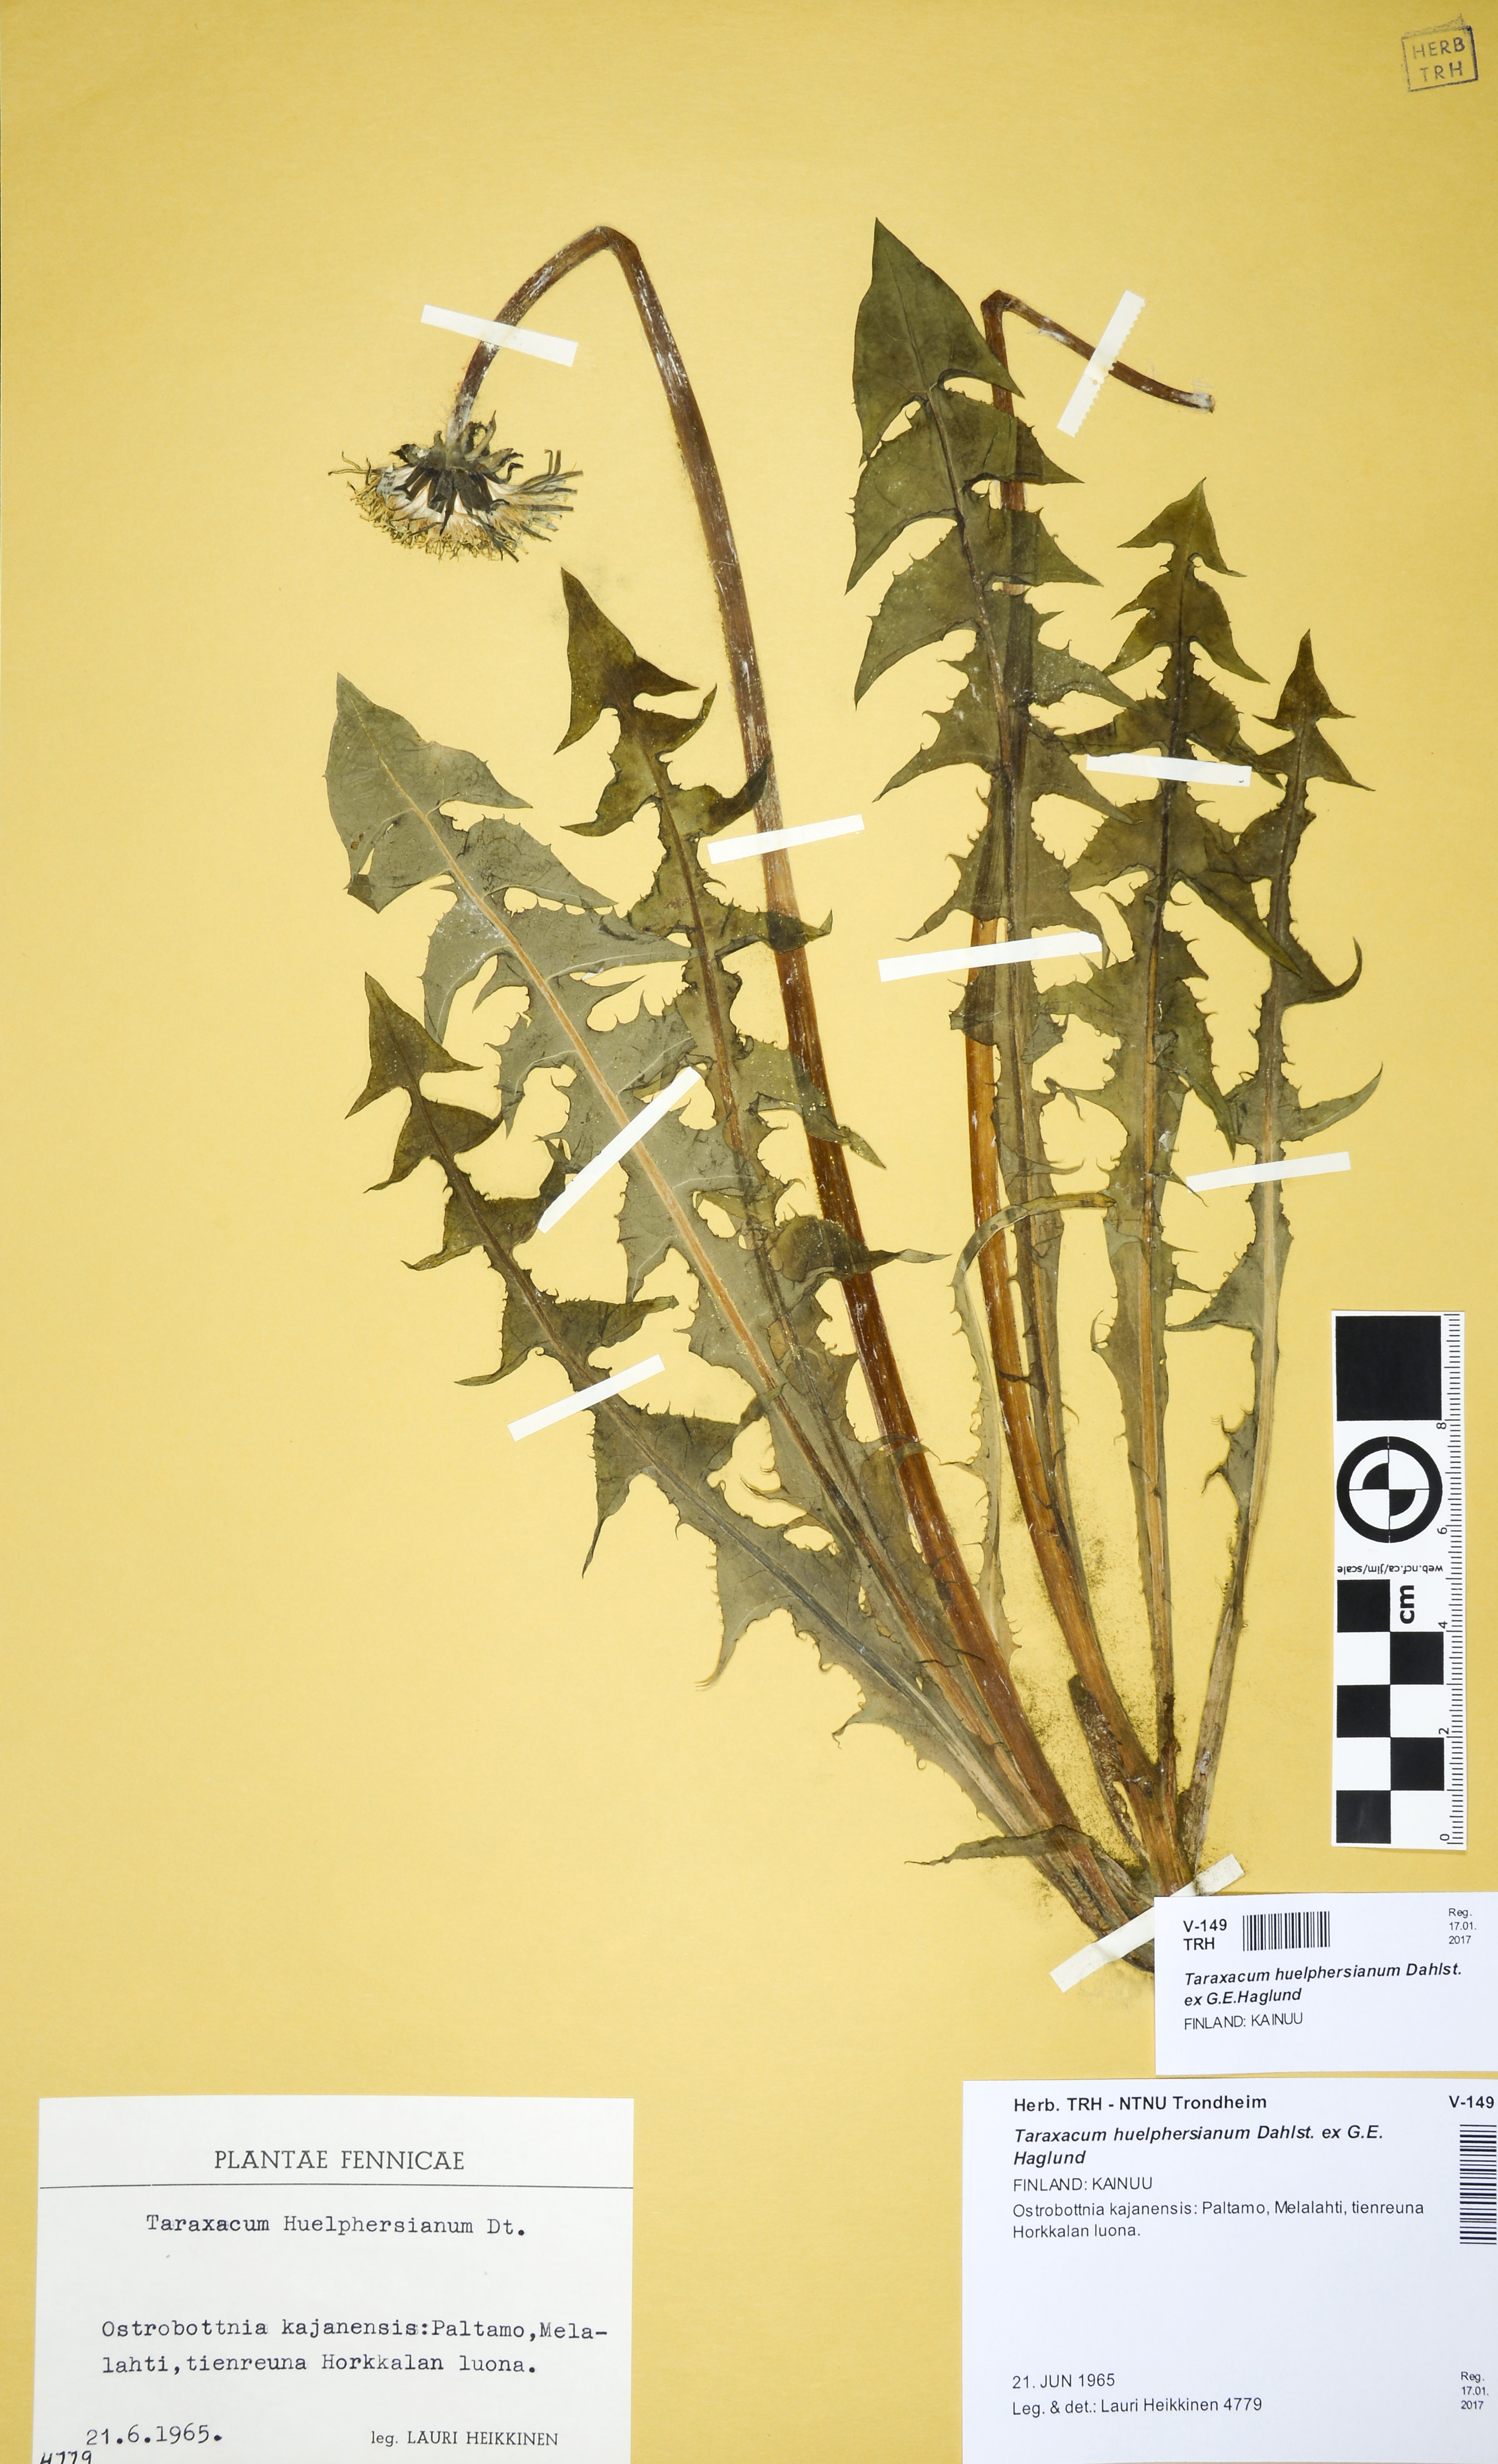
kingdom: Plantae
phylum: Tracheophyta
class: Magnoliopsida
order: Asterales
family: Asteraceae
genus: Taraxacum
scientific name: Taraxacum huelphersianum
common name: Hülphers's dandelion
